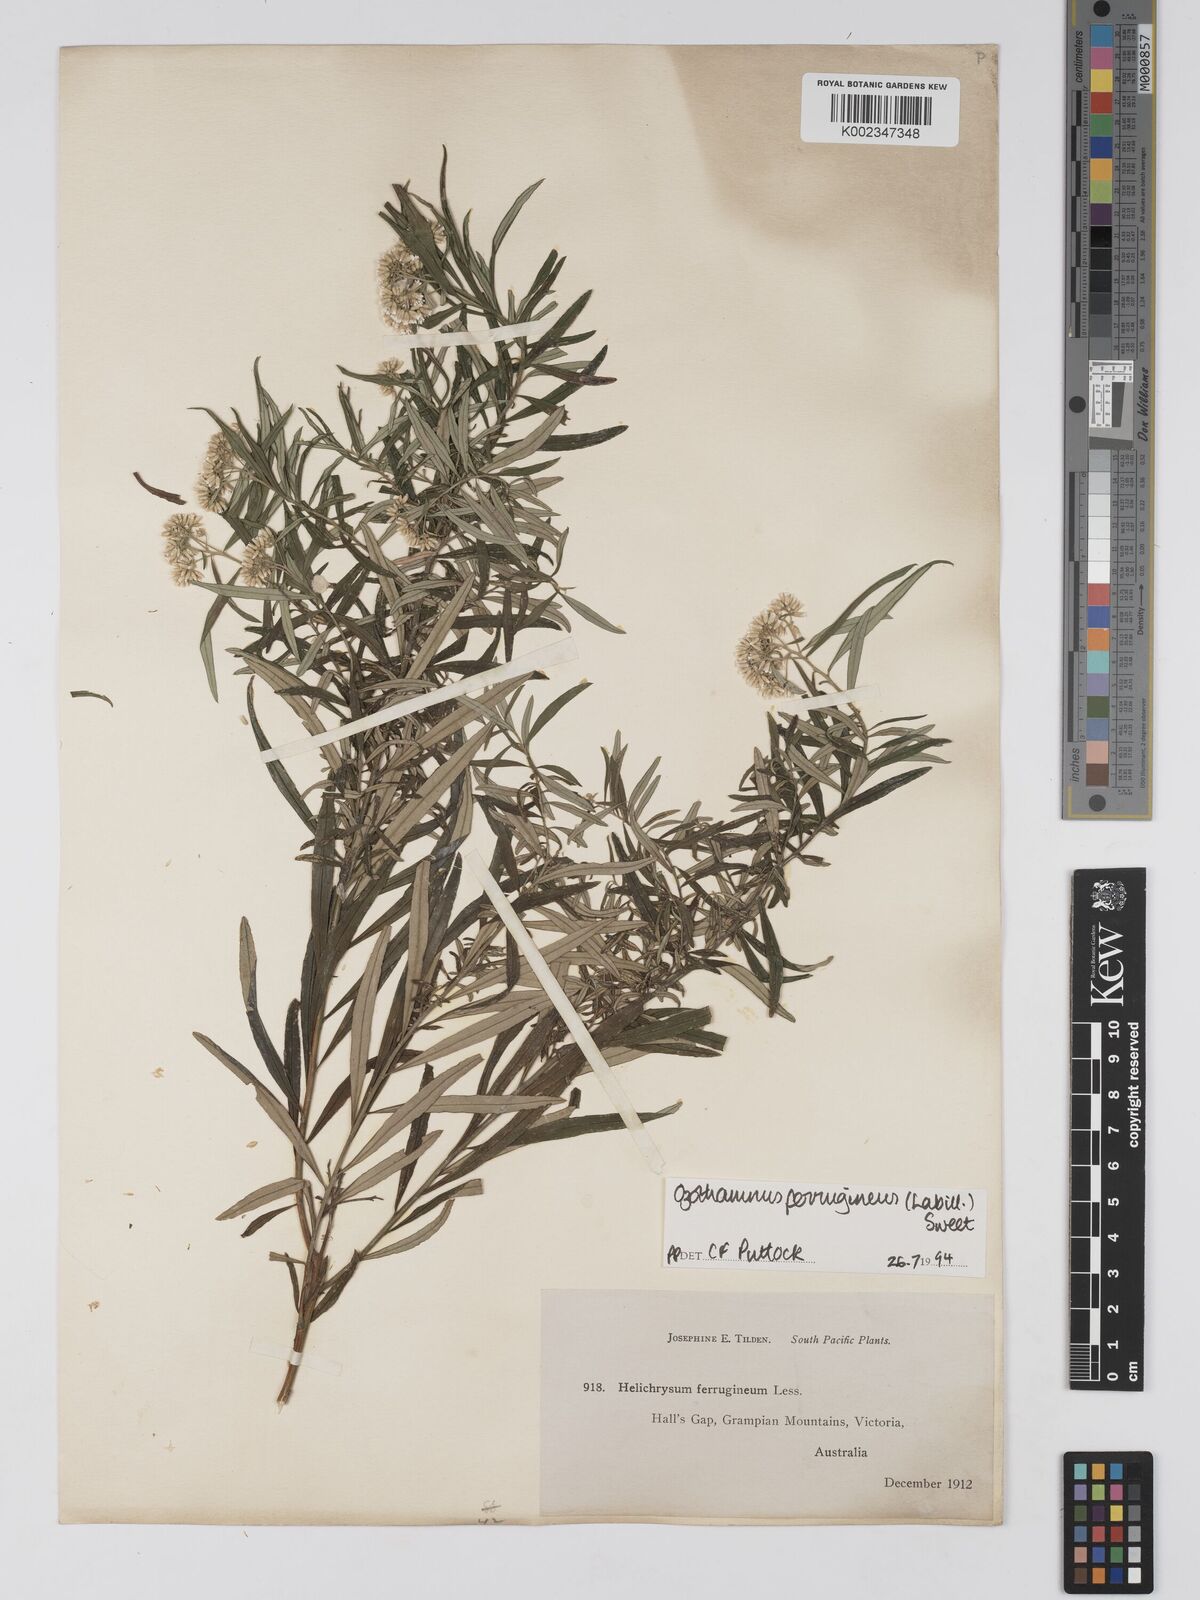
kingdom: Plantae
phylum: Tracheophyta
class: Magnoliopsida
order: Asterales
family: Asteraceae
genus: Ozothamnus
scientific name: Ozothamnus ferrugineus
